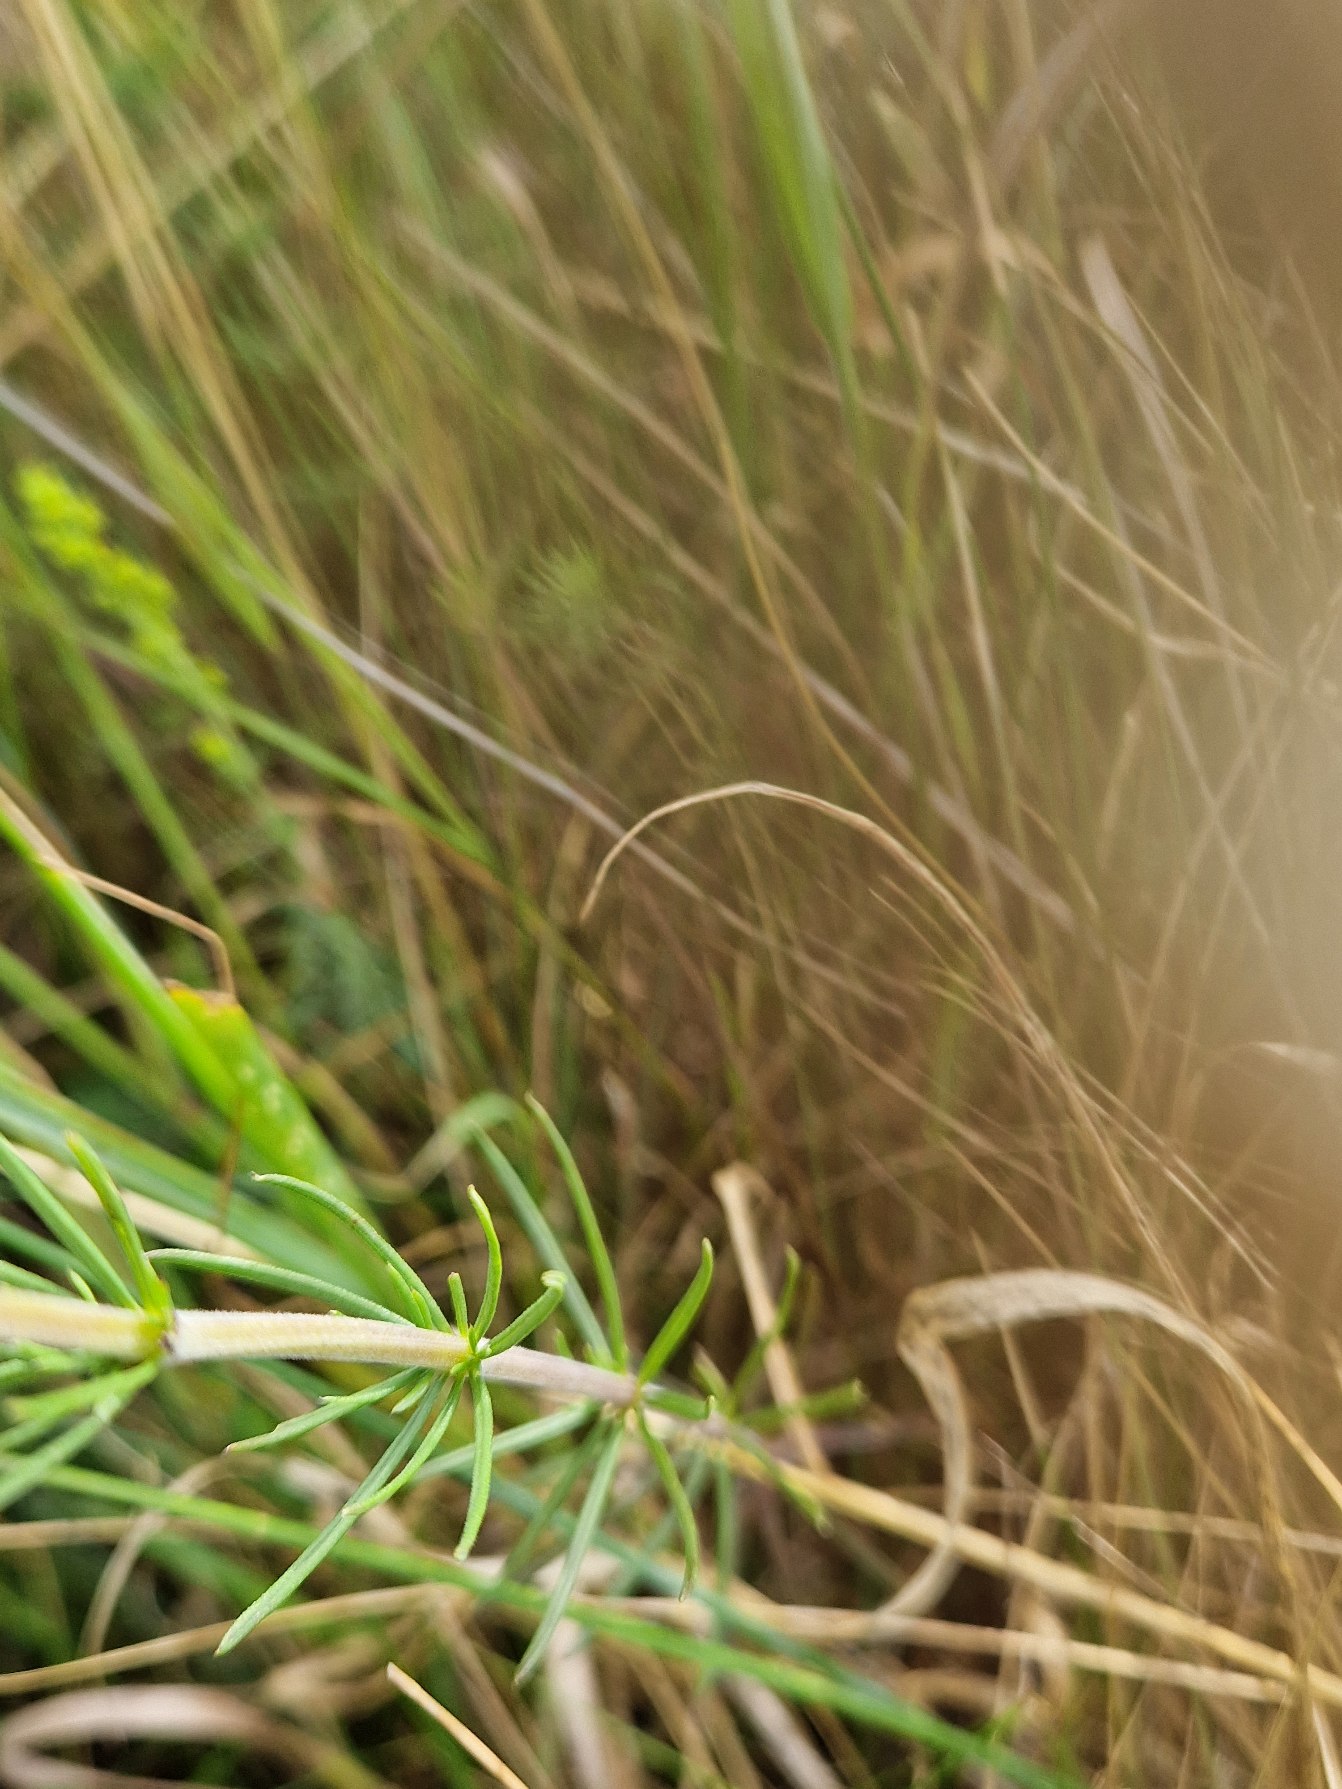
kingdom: Plantae
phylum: Tracheophyta
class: Magnoliopsida
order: Gentianales
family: Rubiaceae
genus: Galium
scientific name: Galium verum
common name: Gul snerre
